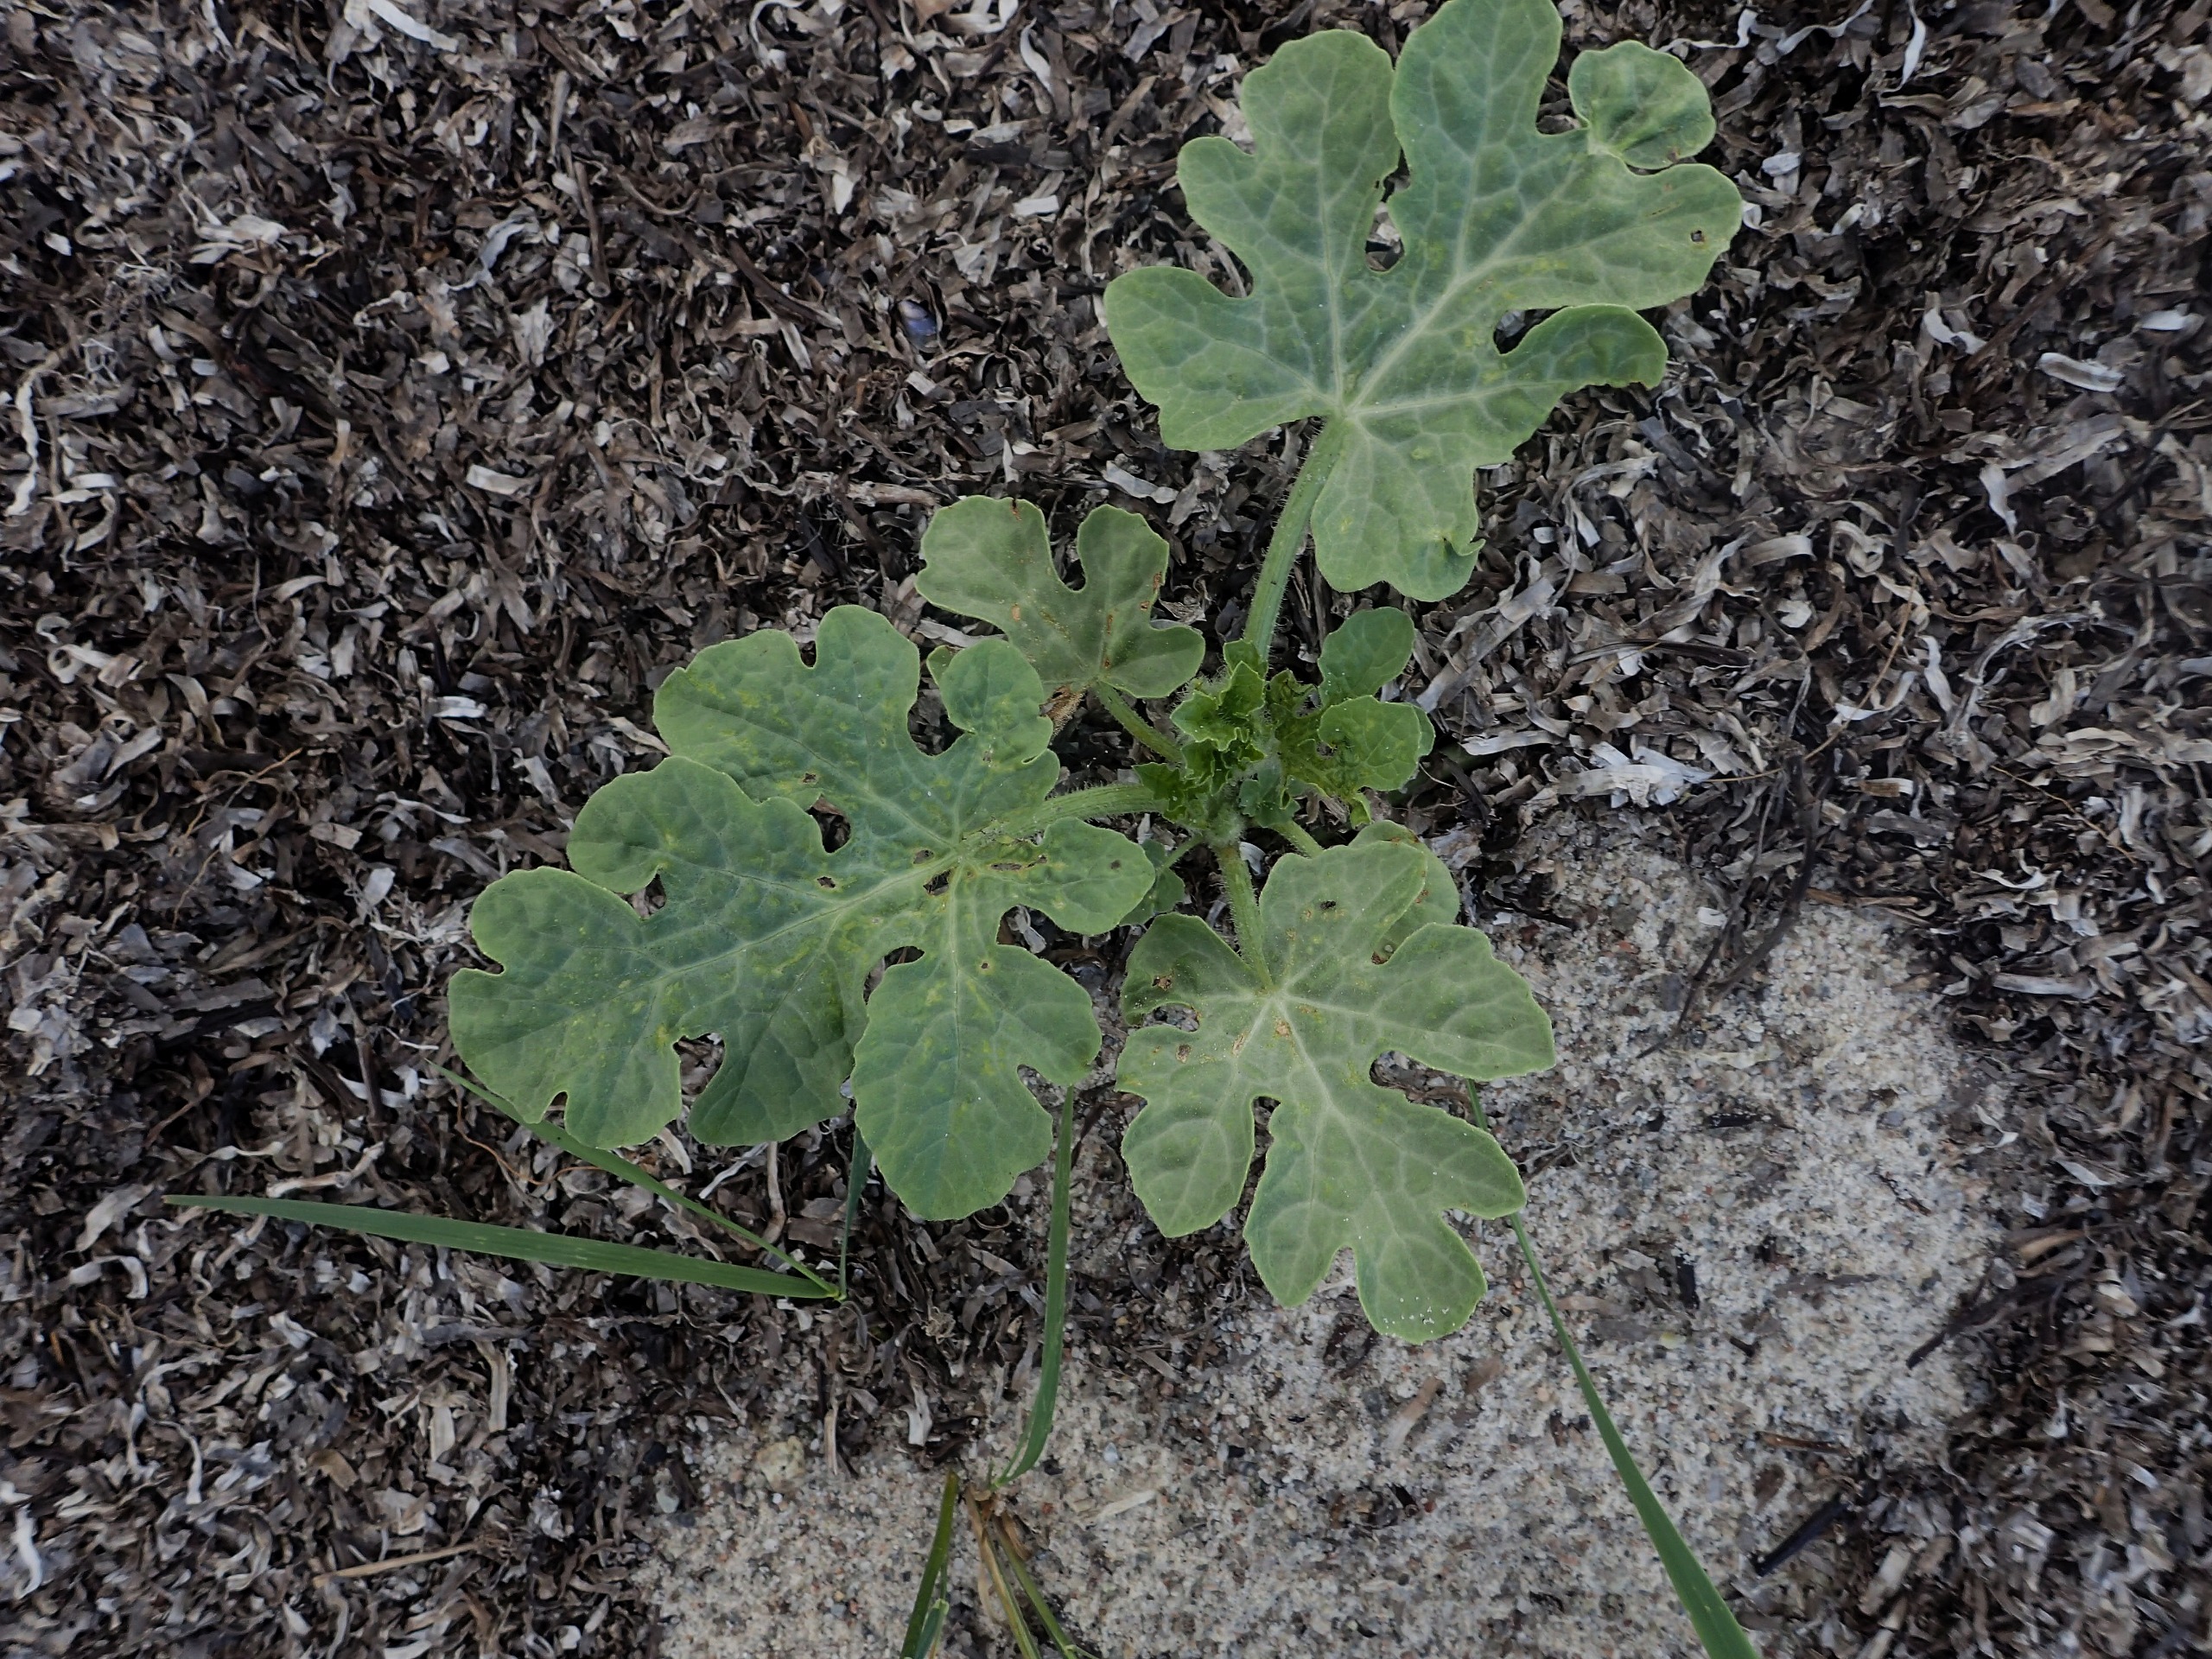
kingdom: Plantae
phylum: Tracheophyta
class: Magnoliopsida
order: Cucurbitales
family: Cucurbitaceae
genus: Citrullus
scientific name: Citrullus lanatus
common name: Vandmelon
